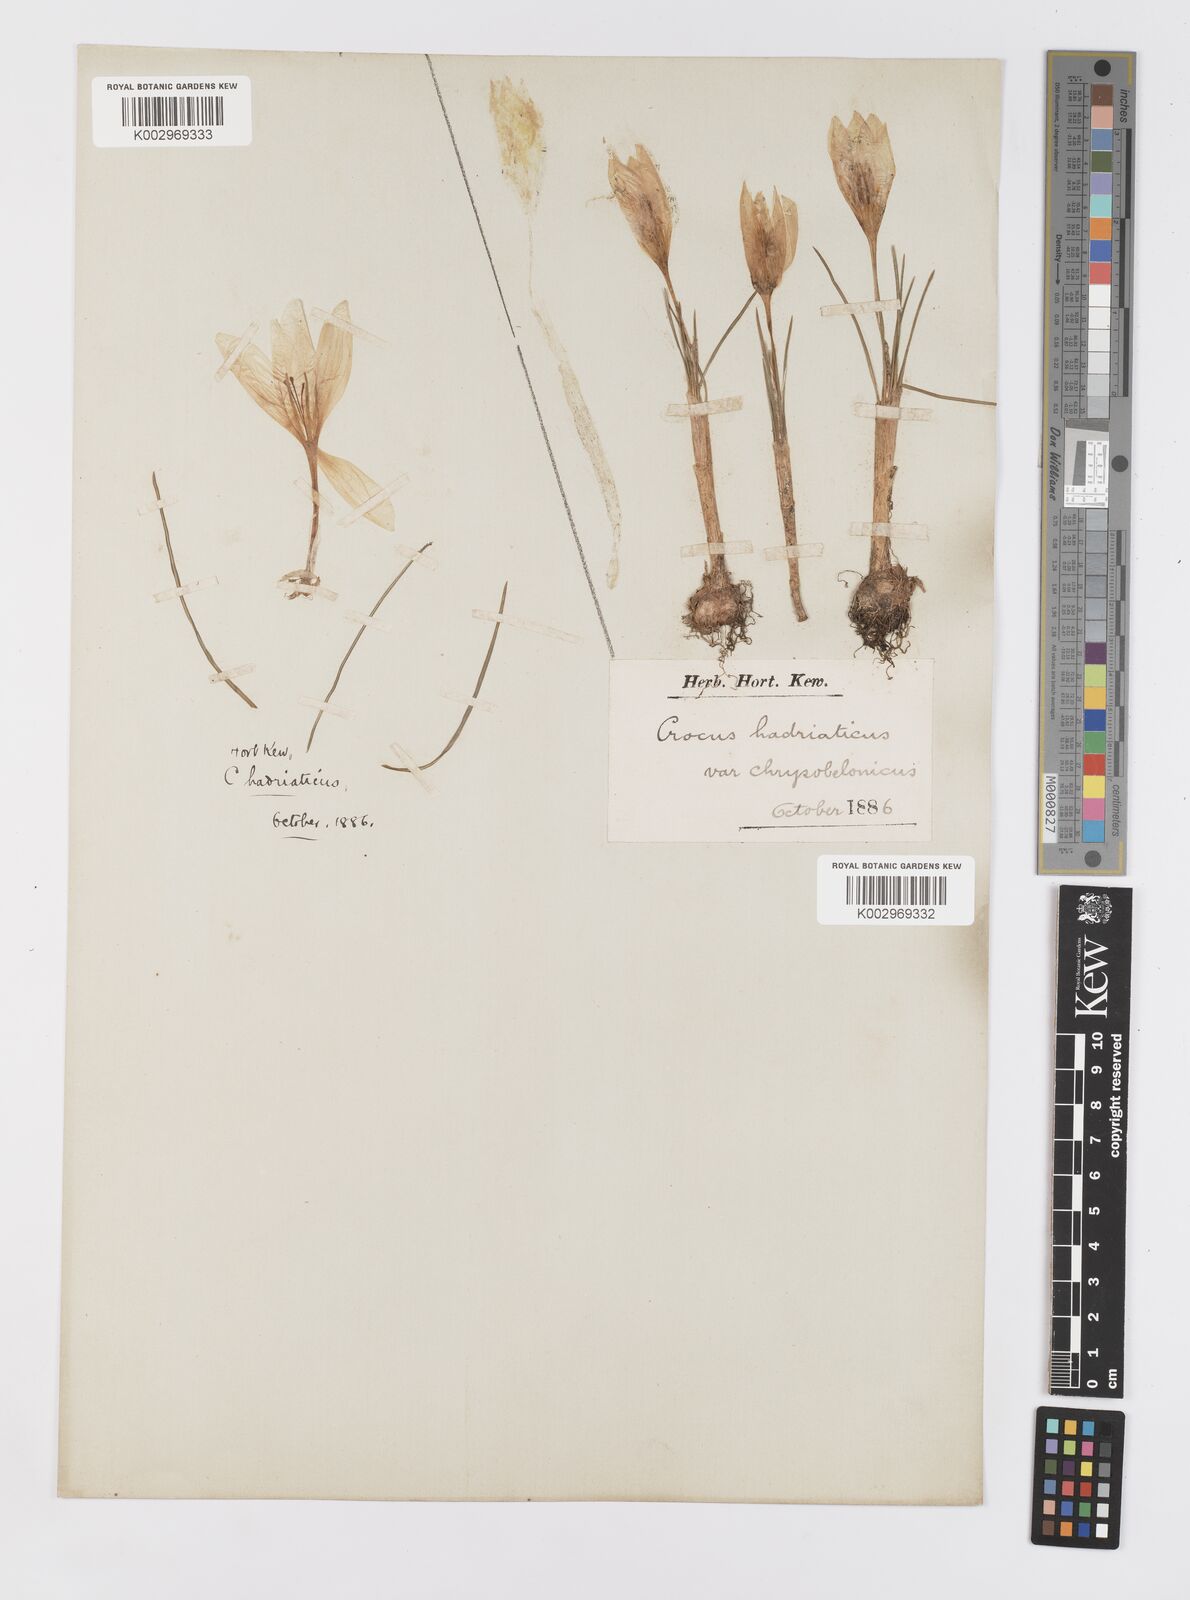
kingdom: Plantae
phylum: Tracheophyta
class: Liliopsida
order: Asparagales
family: Iridaceae
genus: Crocus
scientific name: Crocus hadriaticus
